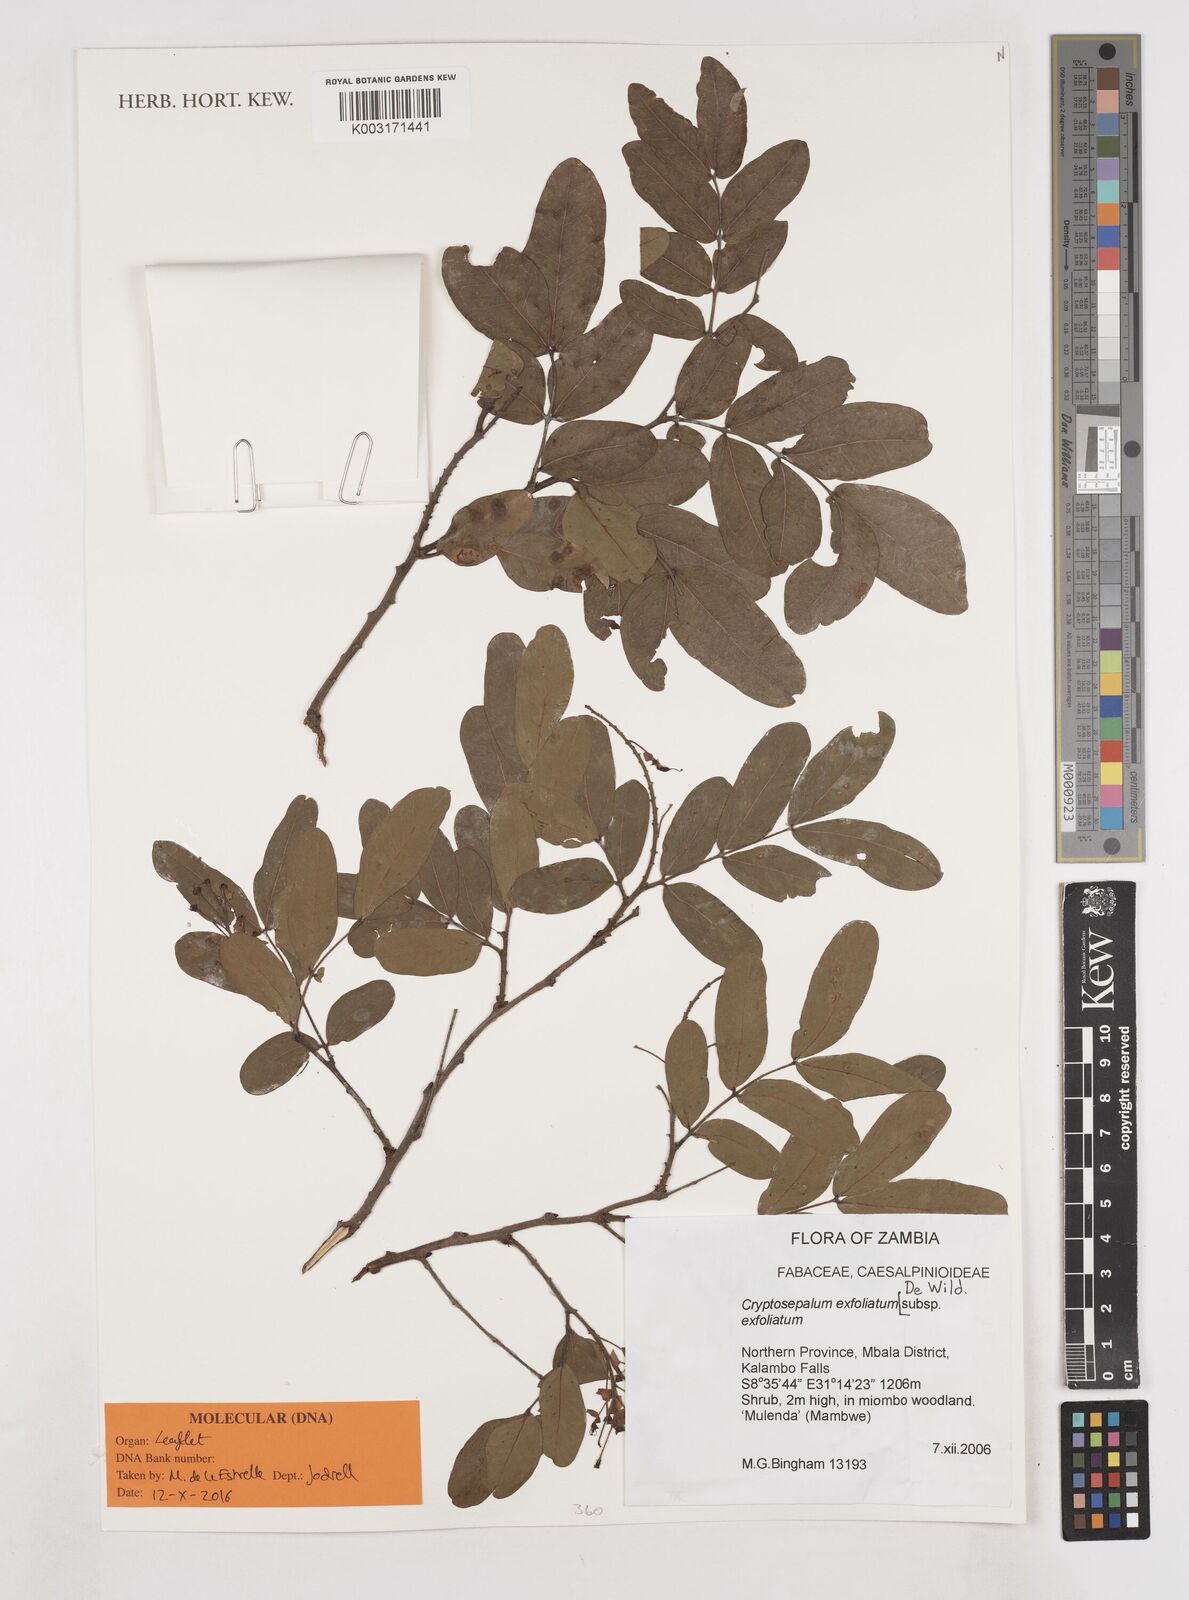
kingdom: Plantae
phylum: Tracheophyta
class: Magnoliopsida
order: Fabales
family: Fabaceae
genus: Cryptosepalum
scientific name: Cryptosepalum exfoliatum
